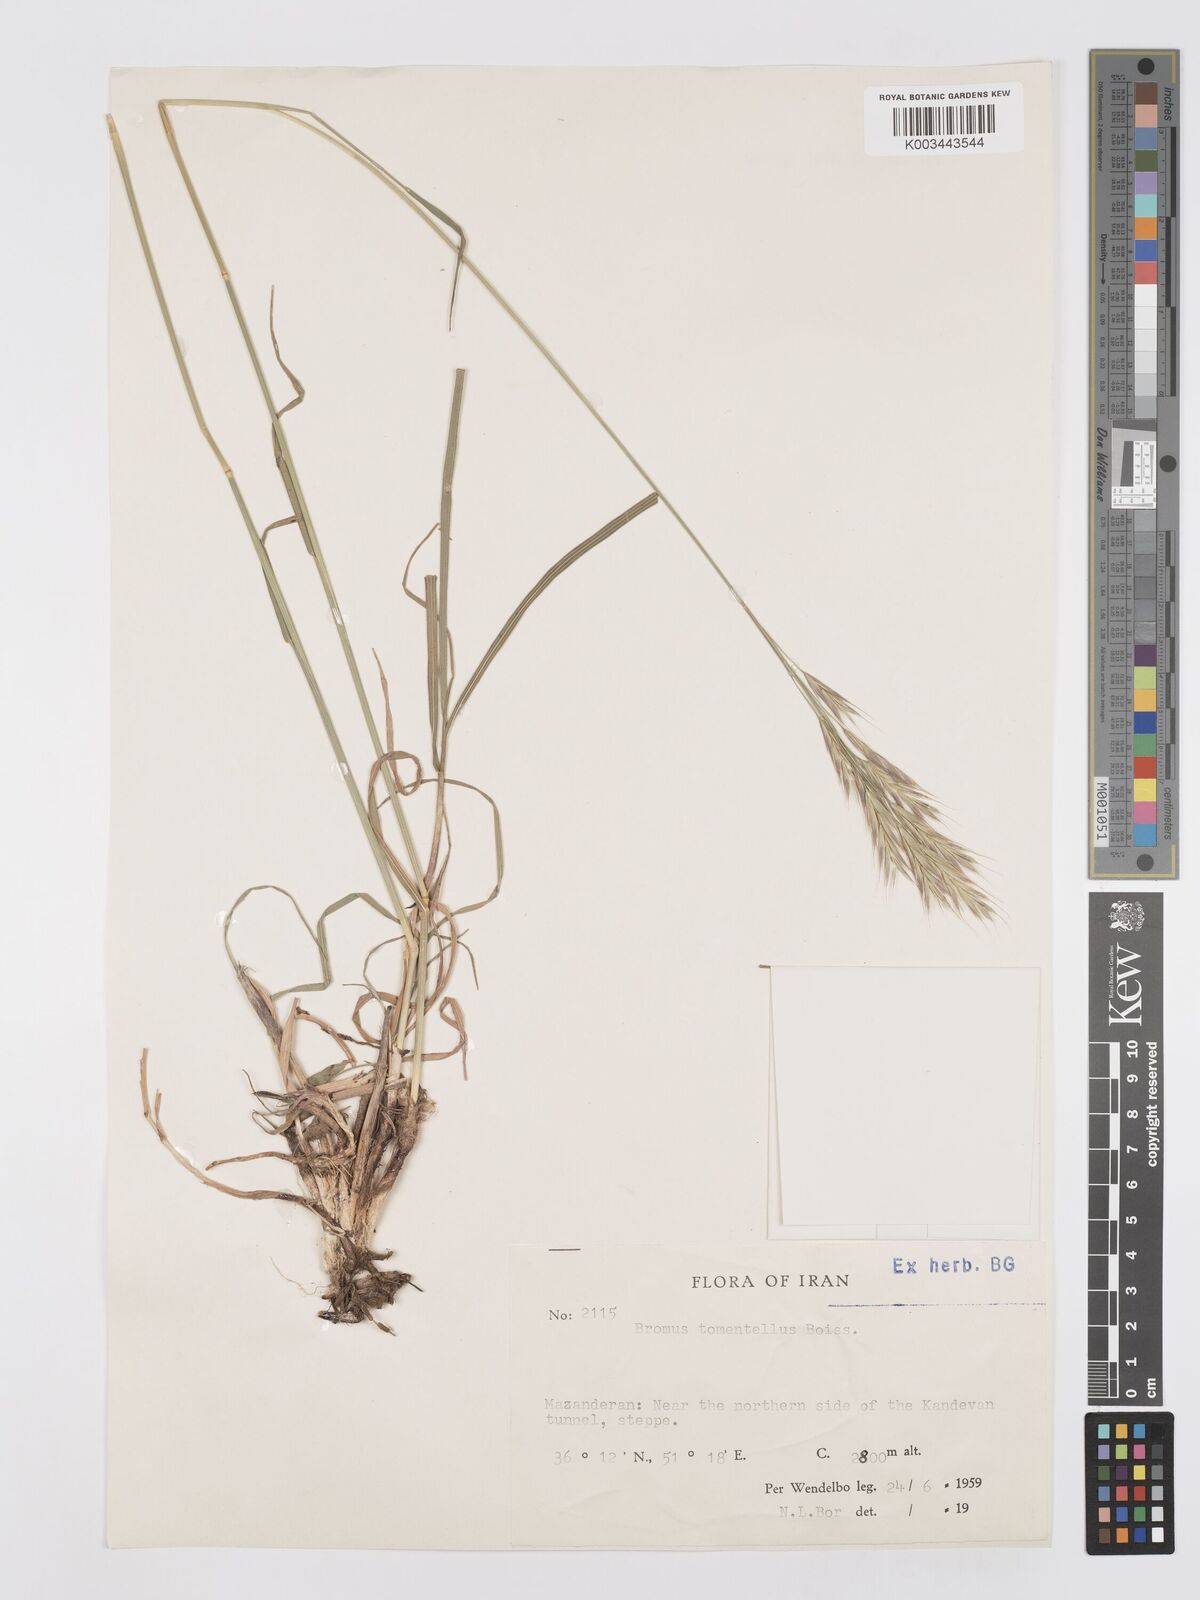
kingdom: Plantae
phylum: Tracheophyta
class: Liliopsida
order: Poales
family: Poaceae
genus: Bromus
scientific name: Bromus tomentellus
